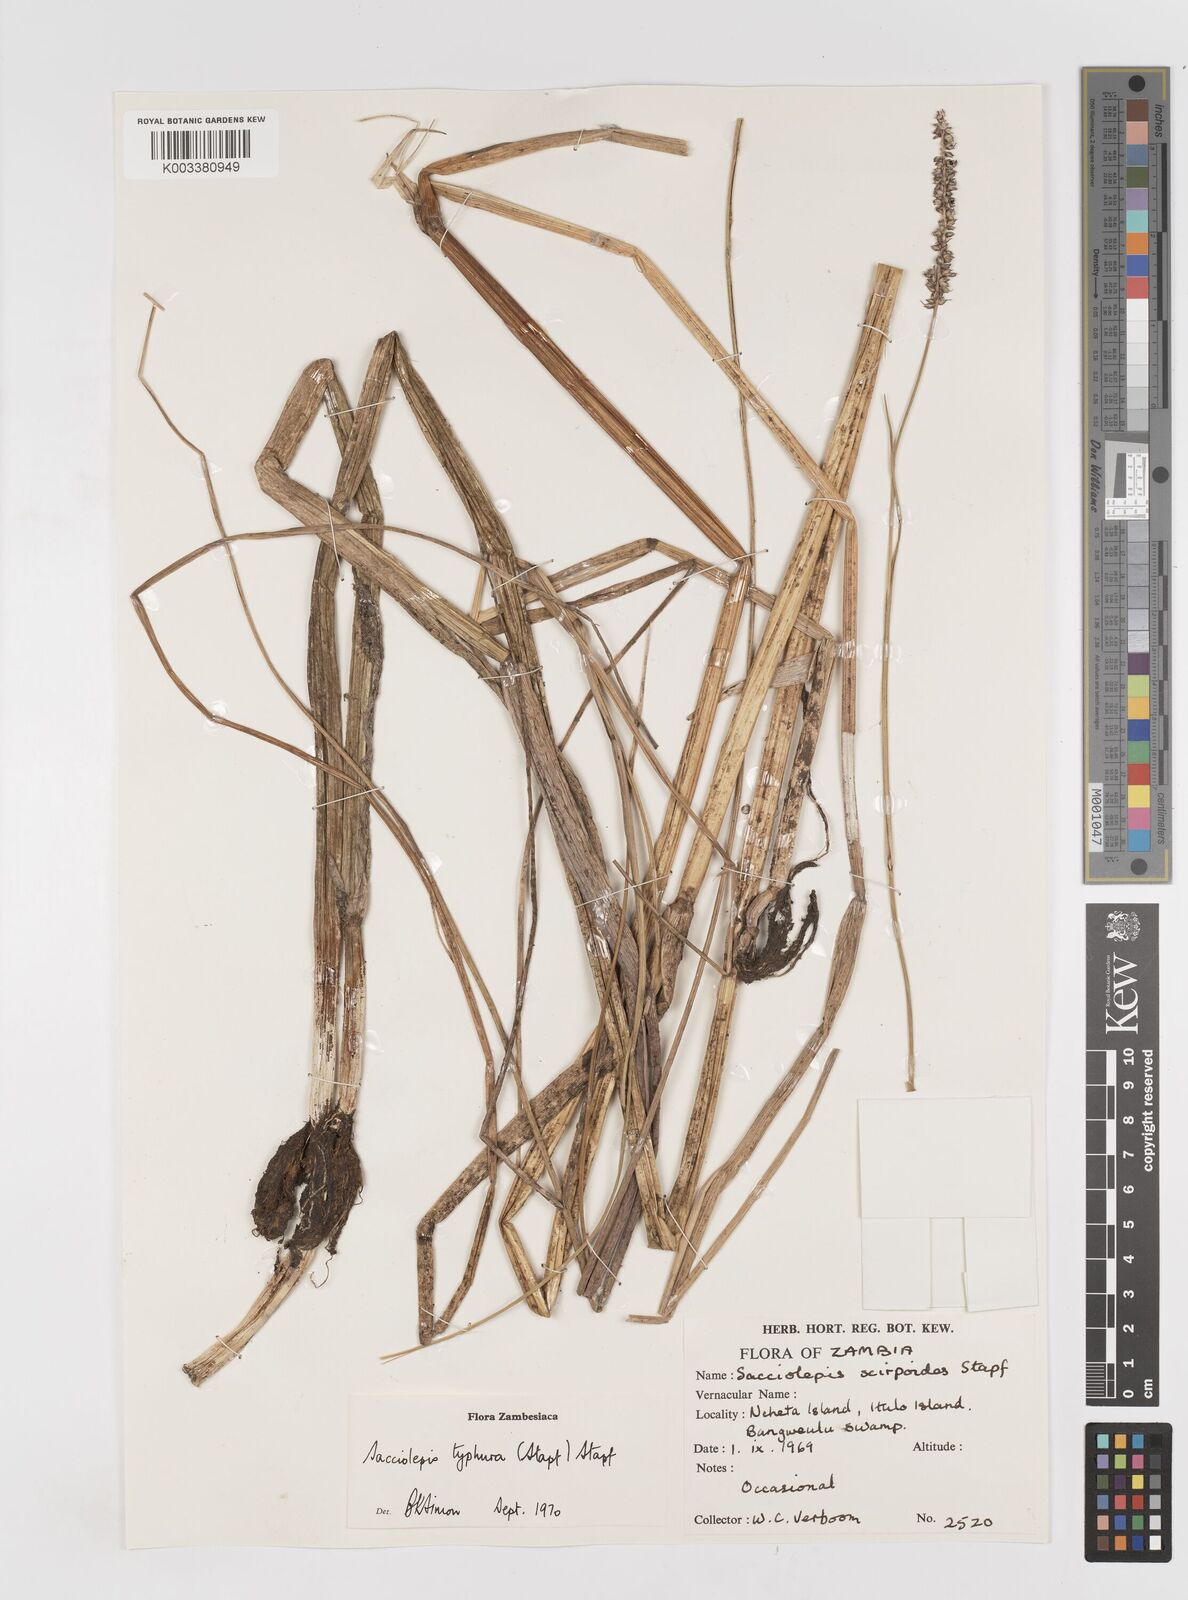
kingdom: Plantae
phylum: Tracheophyta
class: Liliopsida
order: Poales
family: Poaceae
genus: Sacciolepis
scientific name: Sacciolepis typhura
